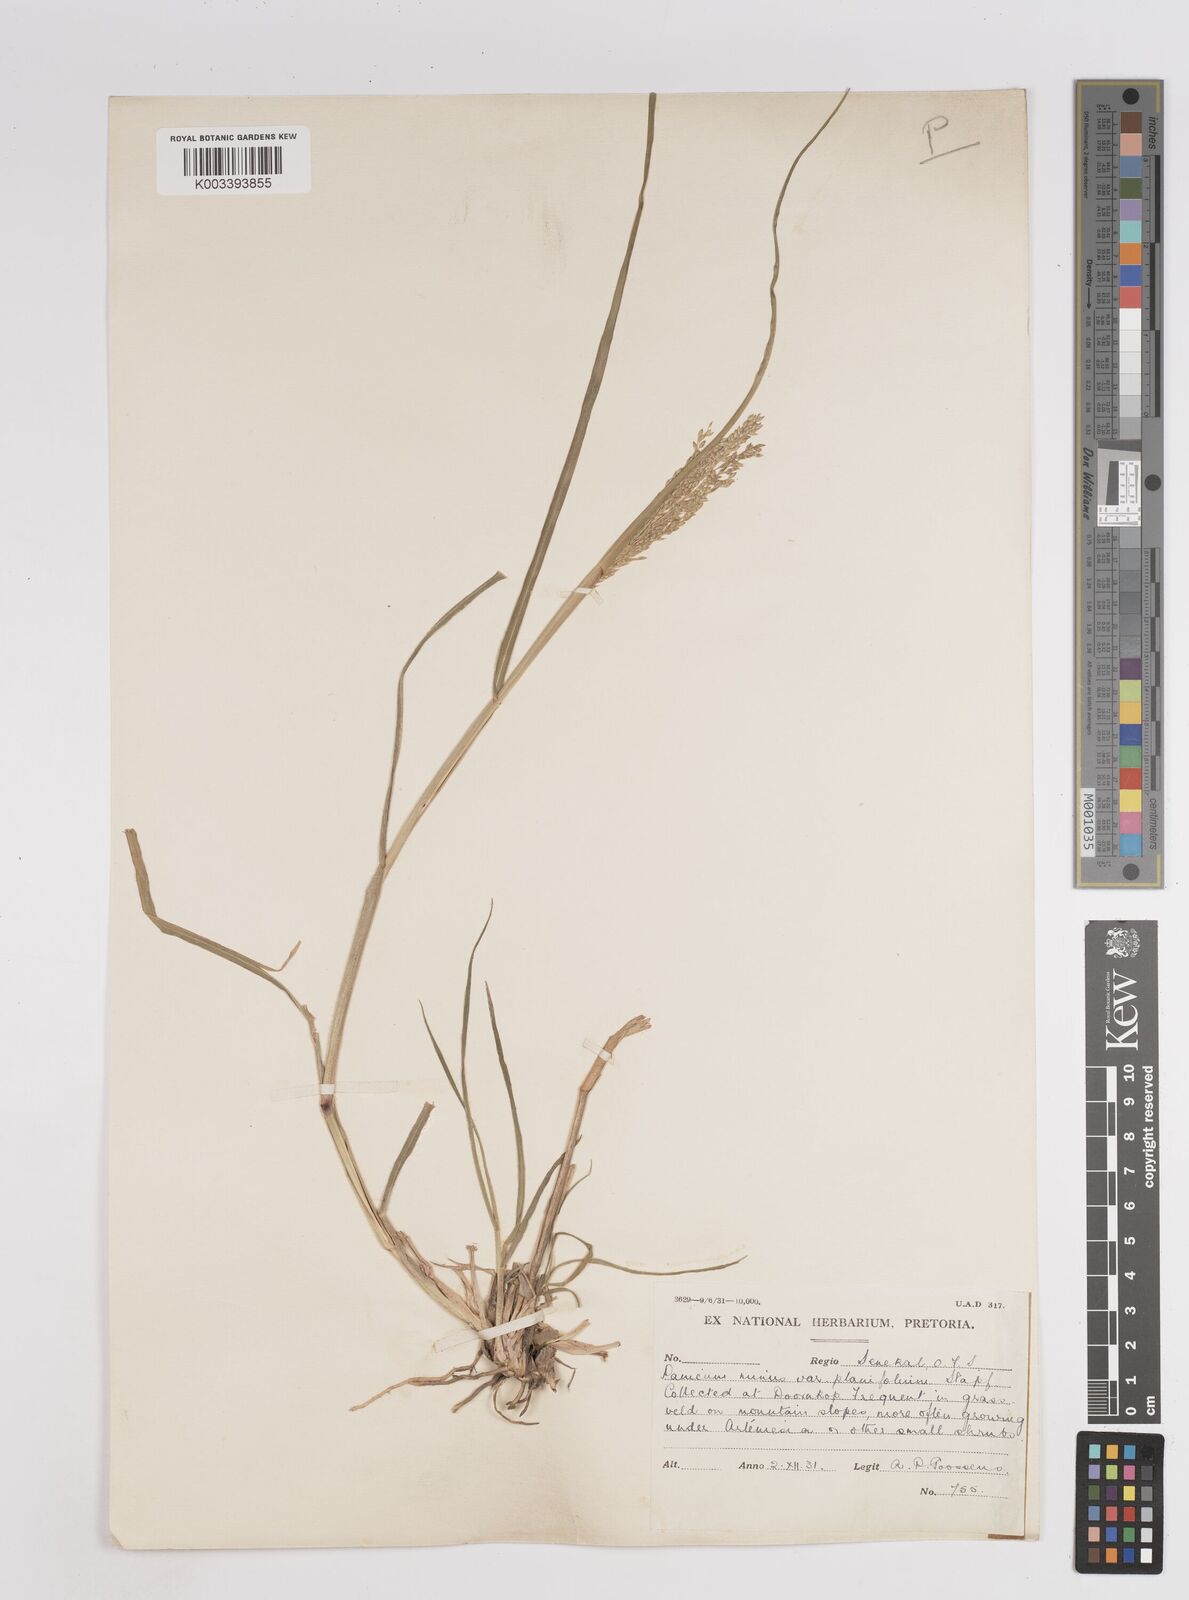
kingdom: Plantae
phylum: Tracheophyta
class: Liliopsida
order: Poales
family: Poaceae
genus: Panicum
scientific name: Panicum stapfianum
